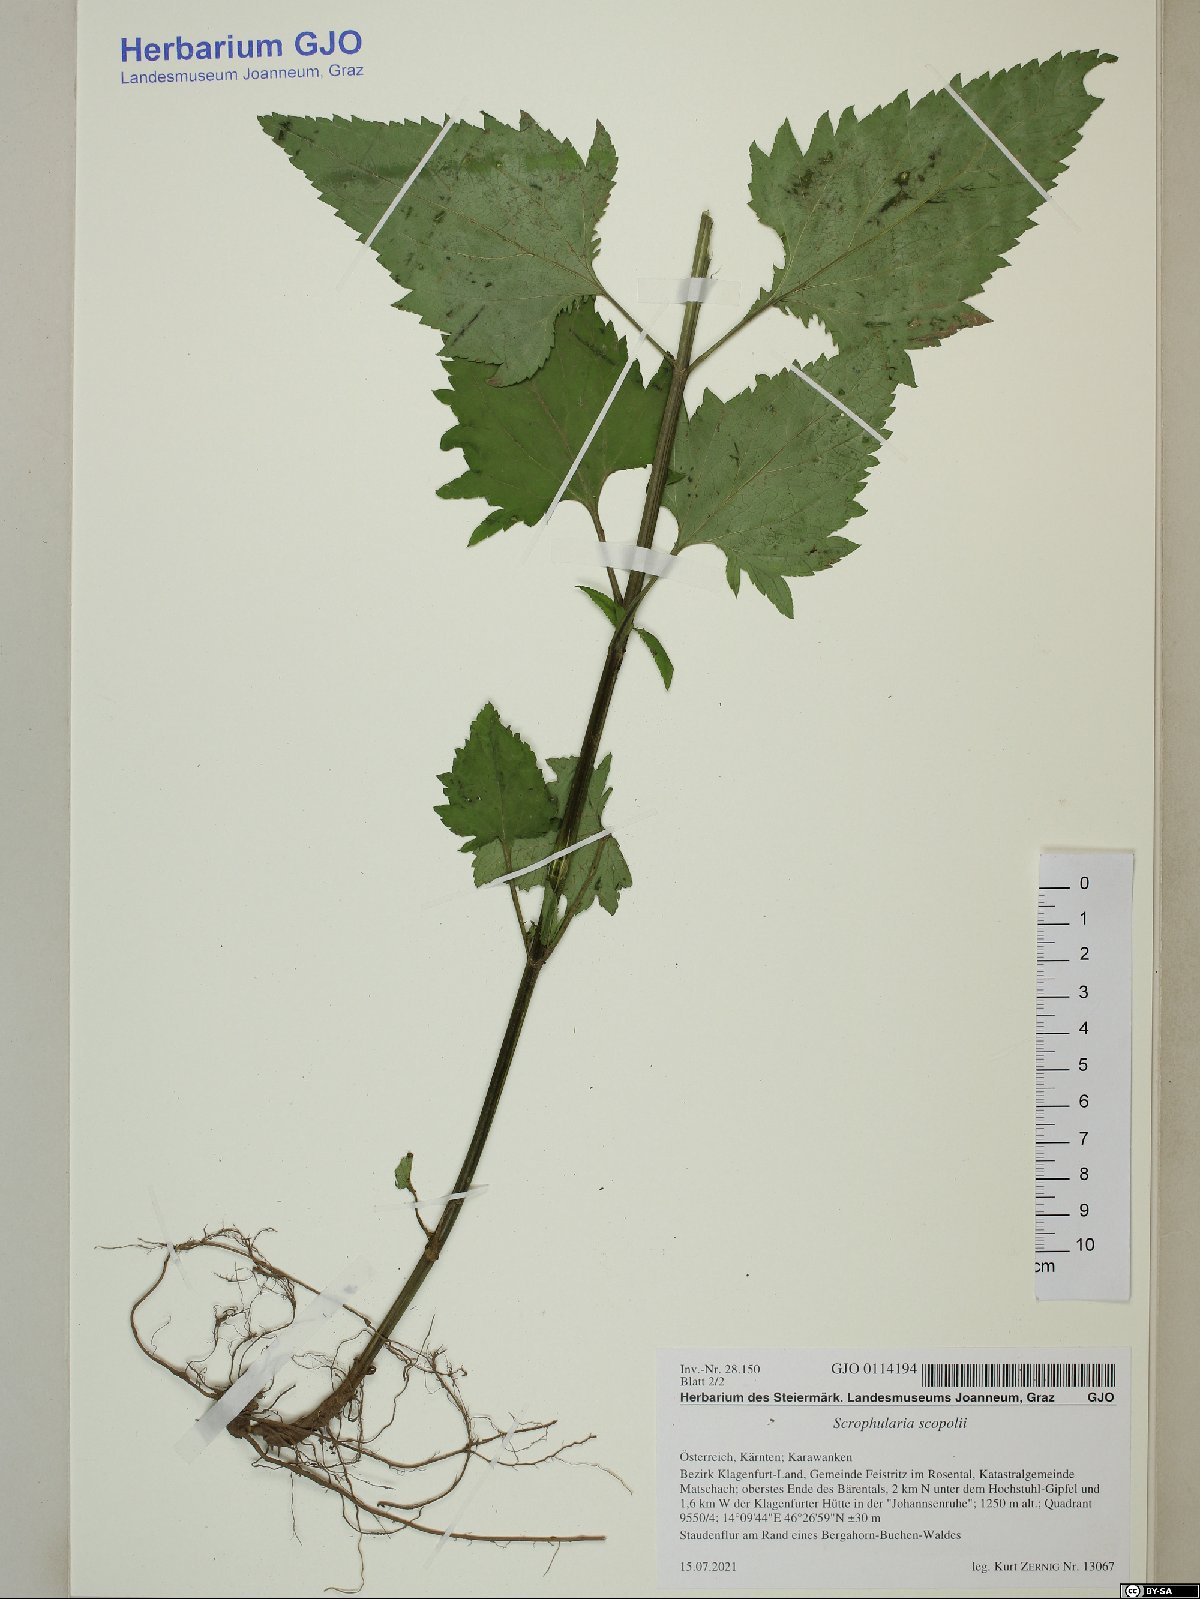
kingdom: Plantae
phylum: Tracheophyta
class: Magnoliopsida
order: Lamiales
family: Scrophulariaceae
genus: Scrophularia
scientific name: Scrophularia scopolii
